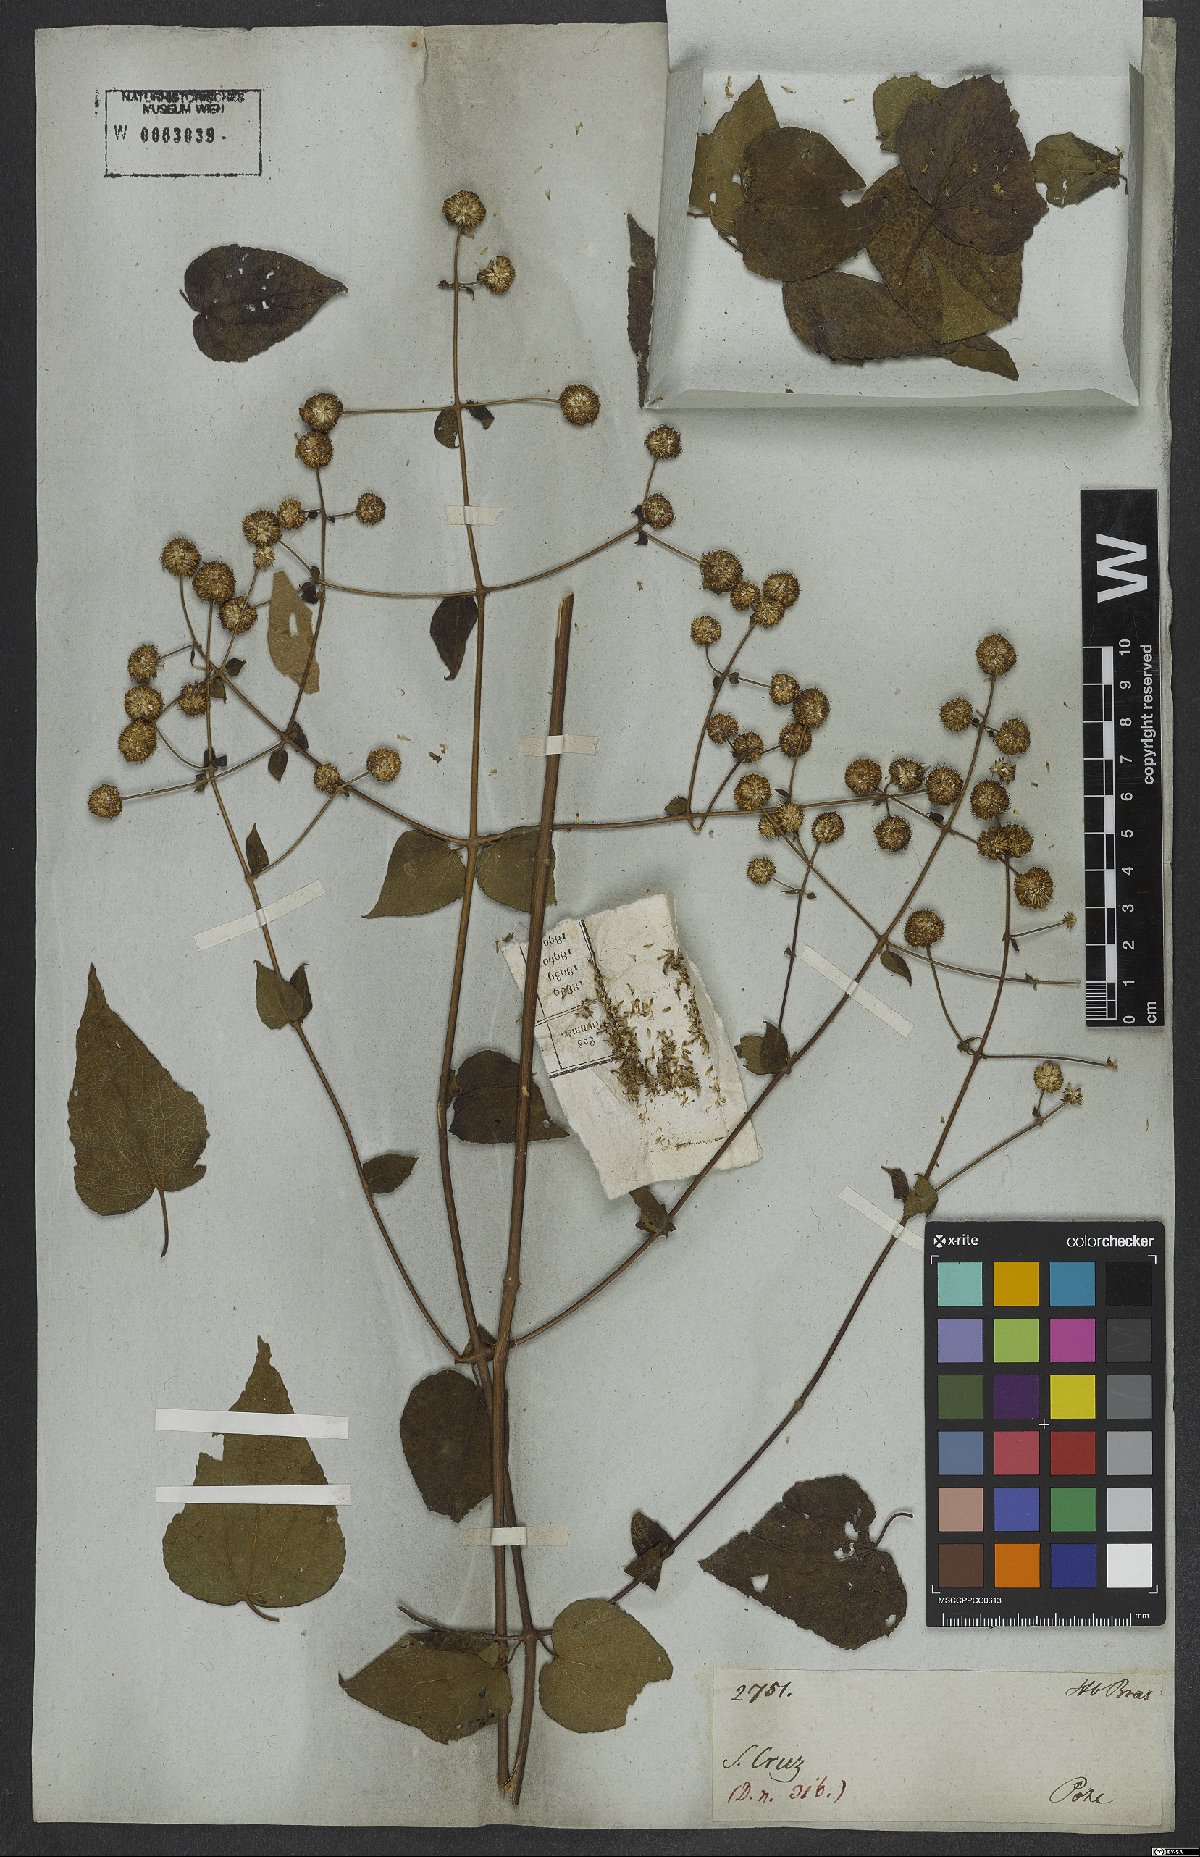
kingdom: Plantae
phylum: Tracheophyta
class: Magnoliopsida
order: Asterales
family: Asteraceae
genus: Elephantopus
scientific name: Elephantopus
